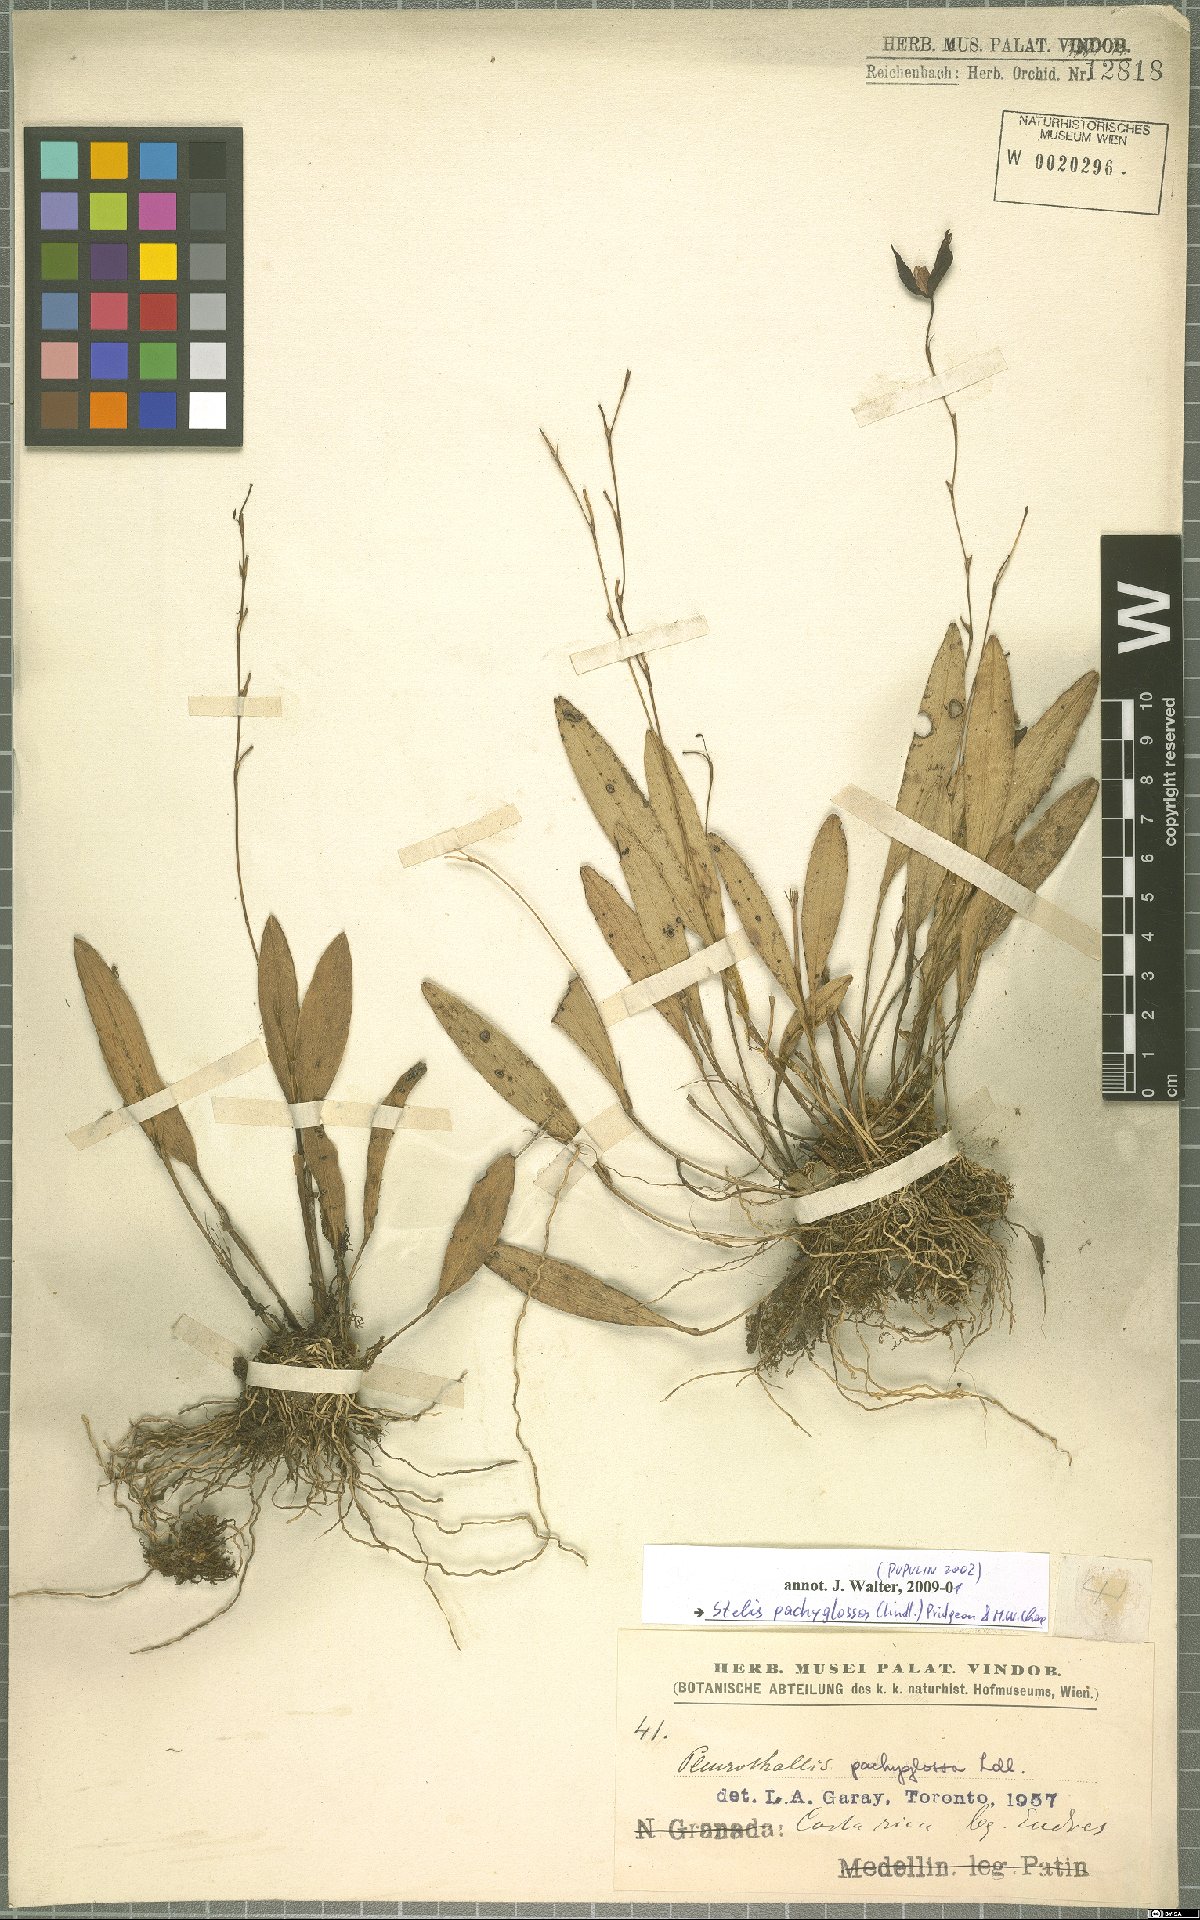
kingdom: Plantae
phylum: Tracheophyta
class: Liliopsida
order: Asparagales
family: Orchidaceae
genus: Stelis
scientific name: Stelis pachyglossa
